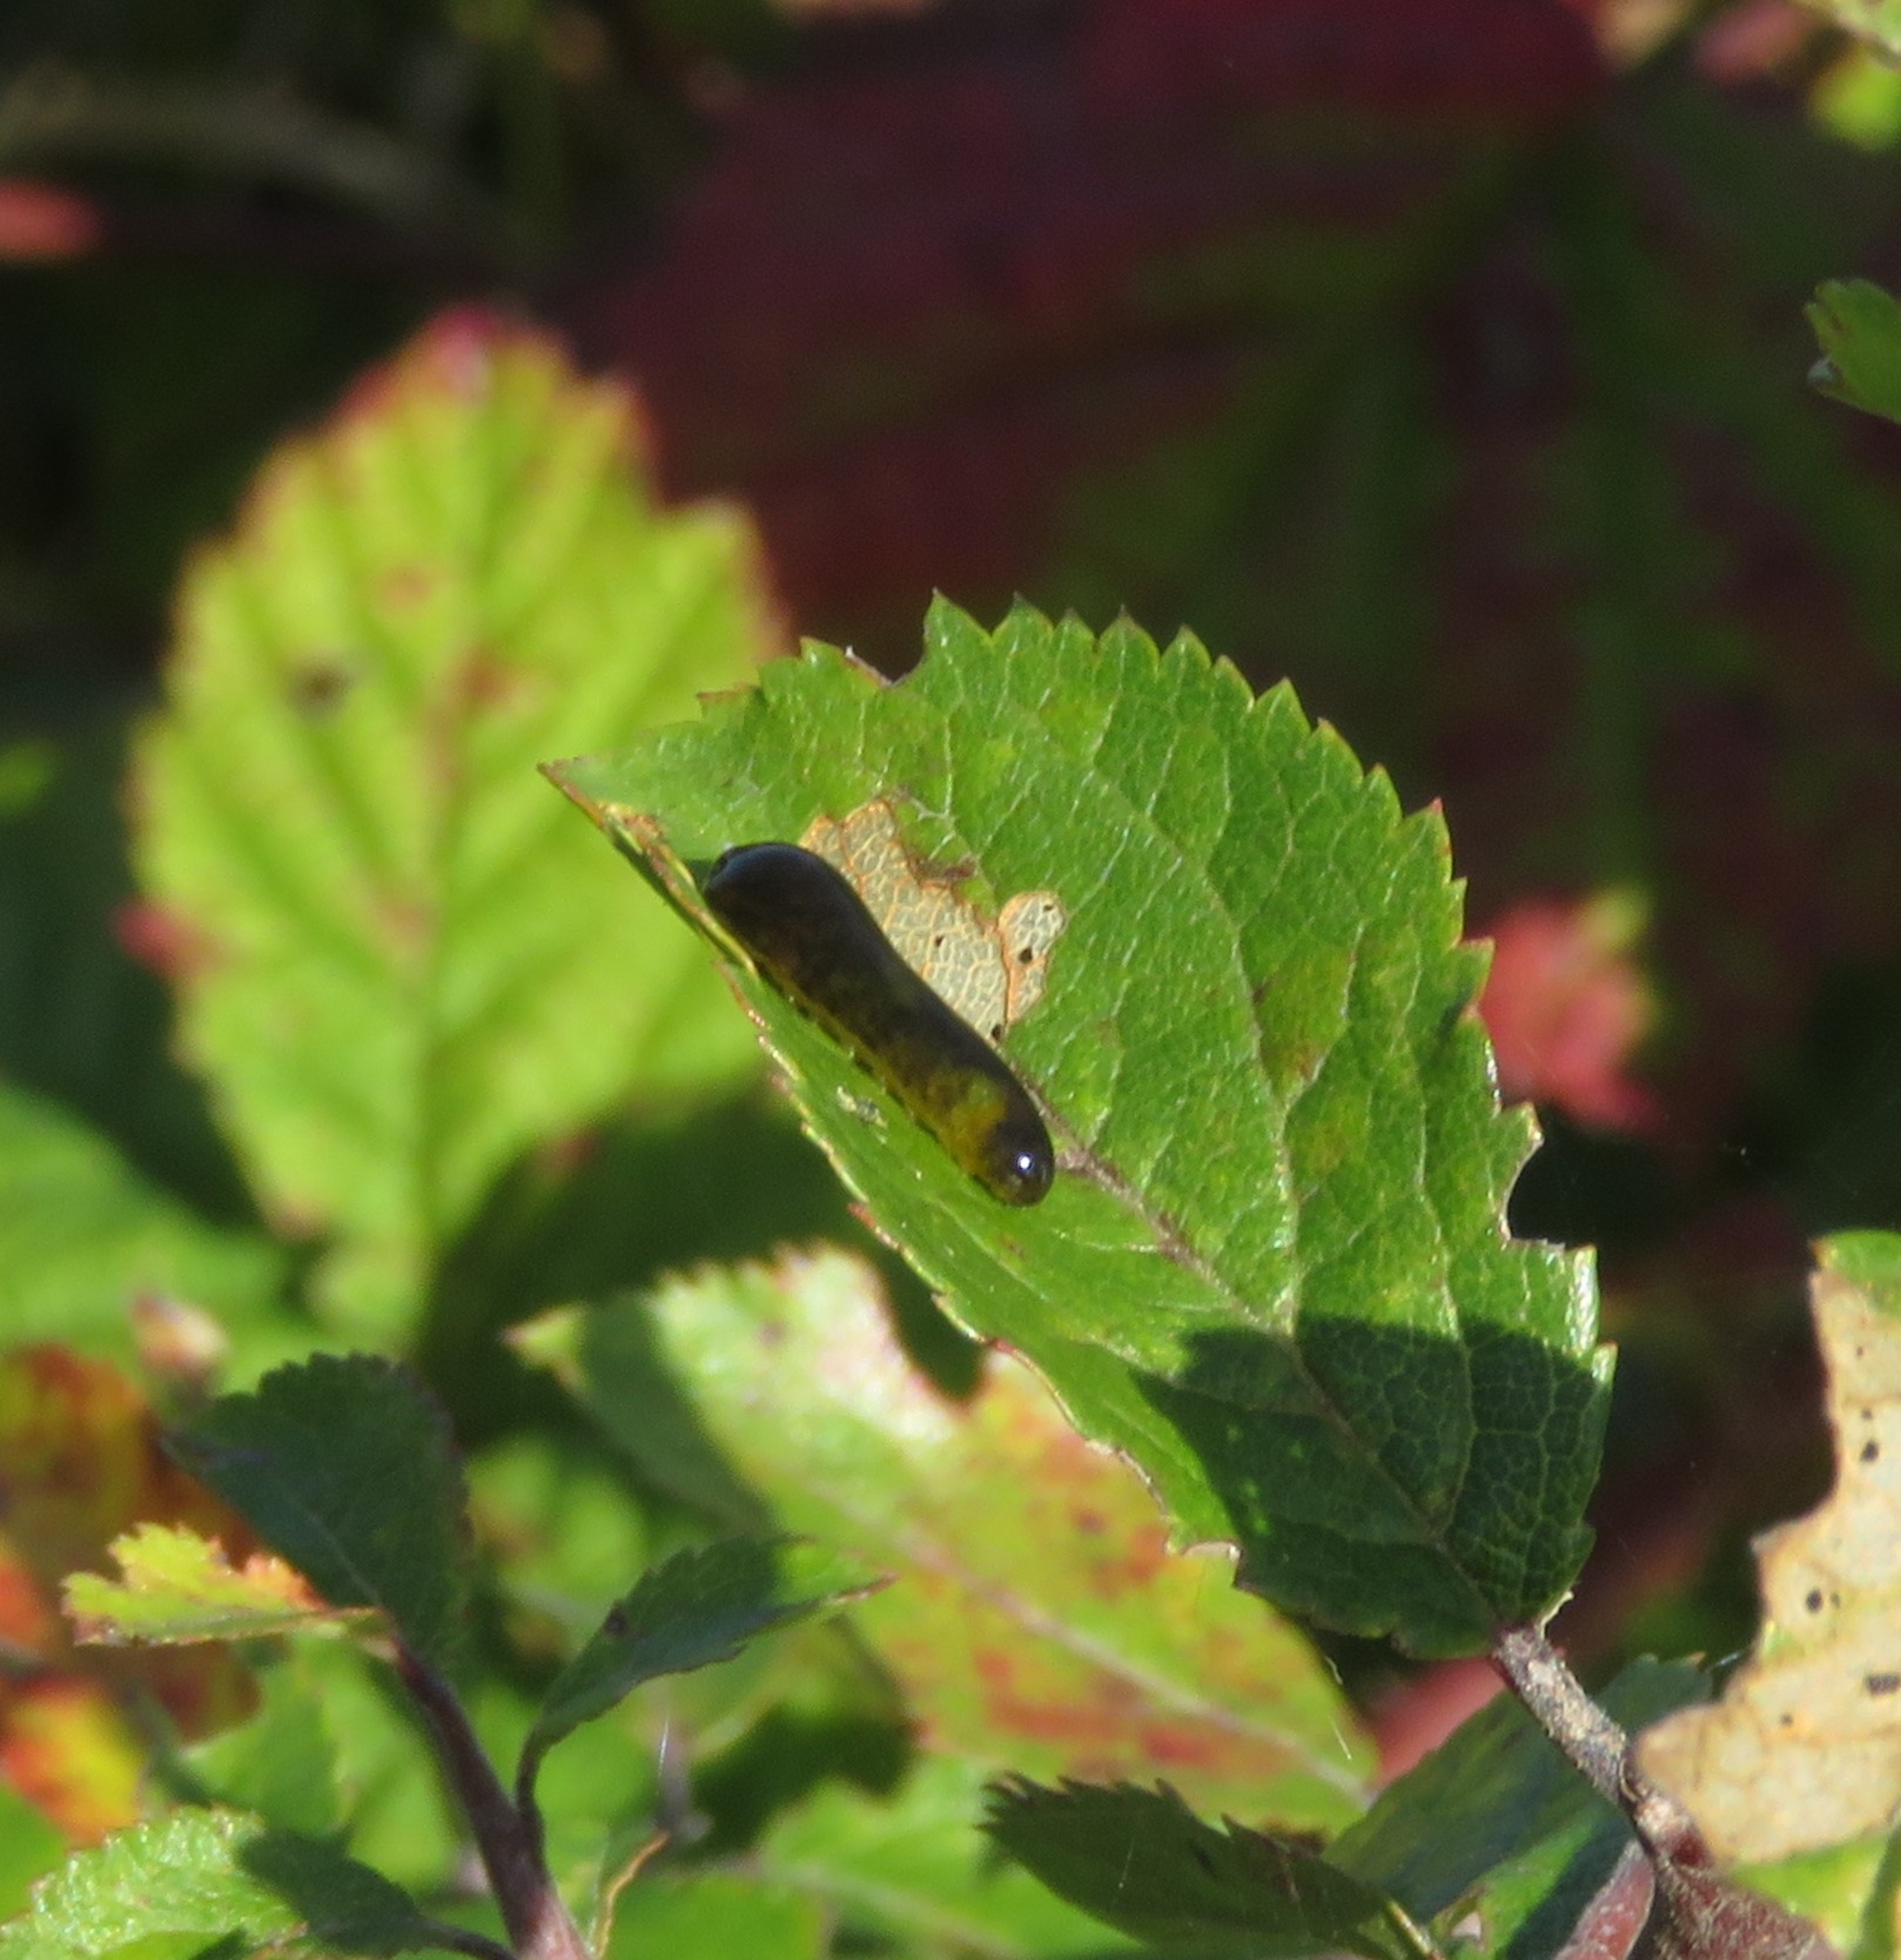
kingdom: Animalia
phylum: Arthropoda
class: Insecta
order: Hymenoptera
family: Tenthredinidae
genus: Caliroa
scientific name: Caliroa cerasi
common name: Frugttræbladhveps
